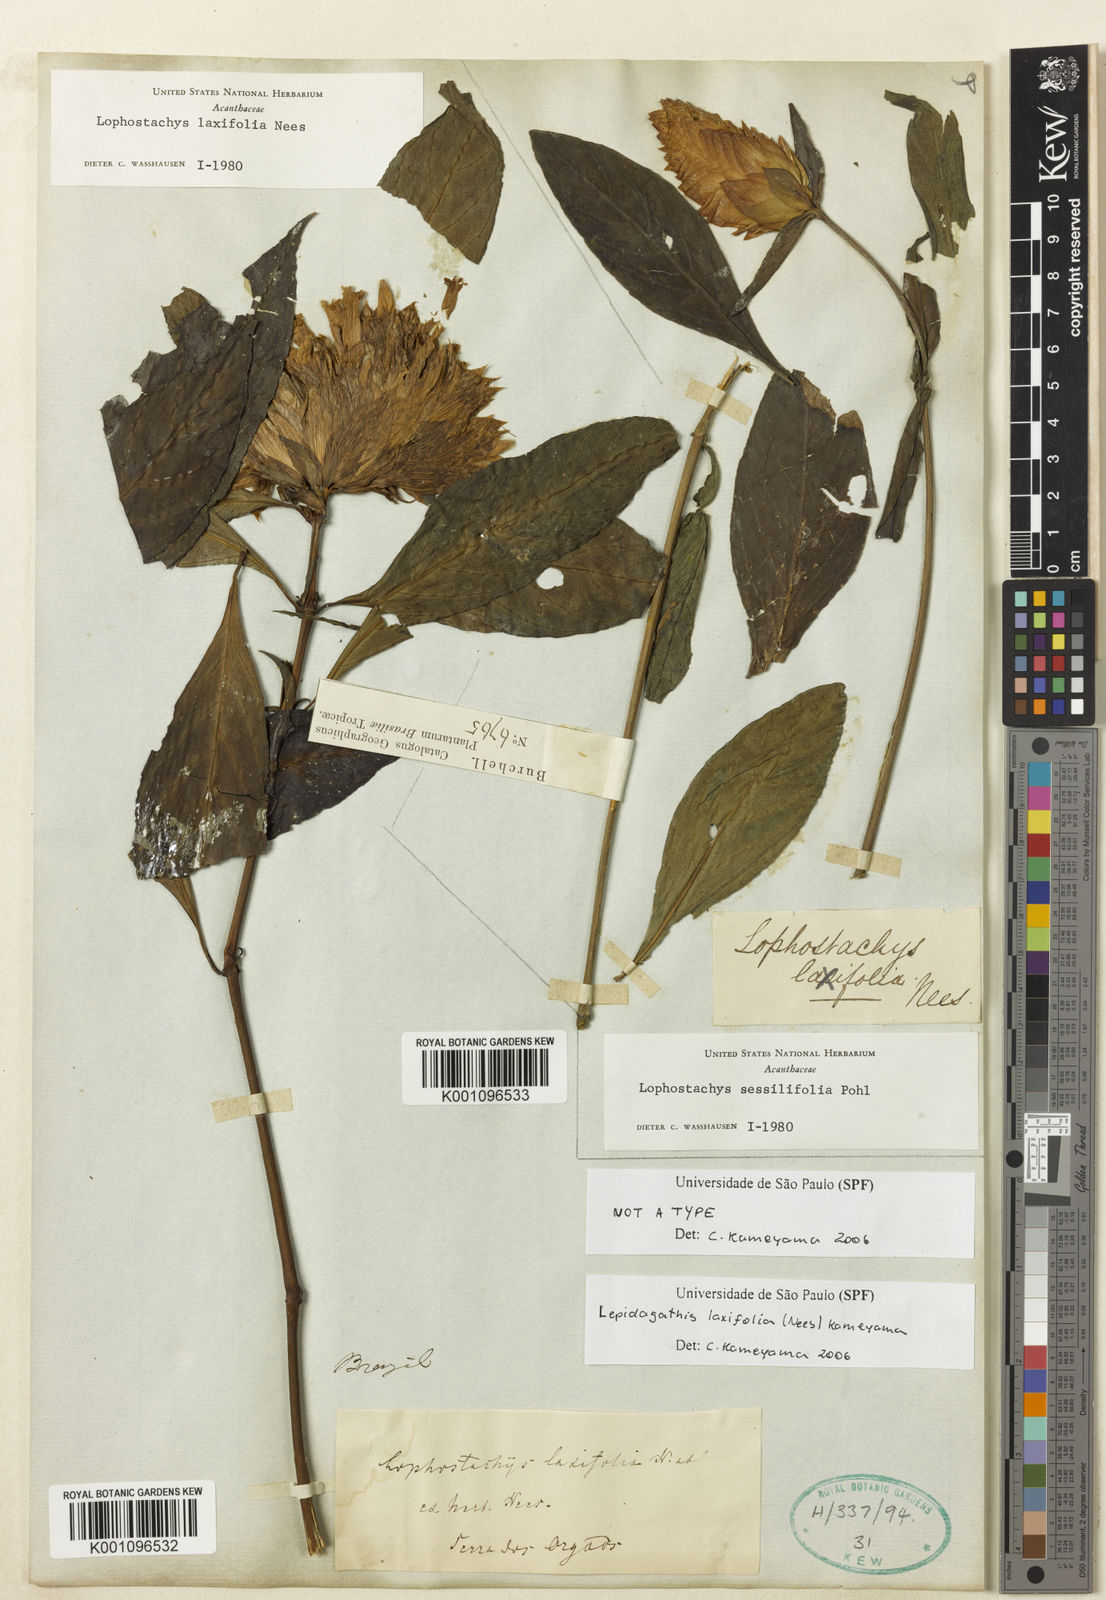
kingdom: Plantae
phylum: Tracheophyta
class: Magnoliopsida
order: Lamiales
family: Acanthaceae
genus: Lepidagathis
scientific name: Lepidagathis laxifolia
